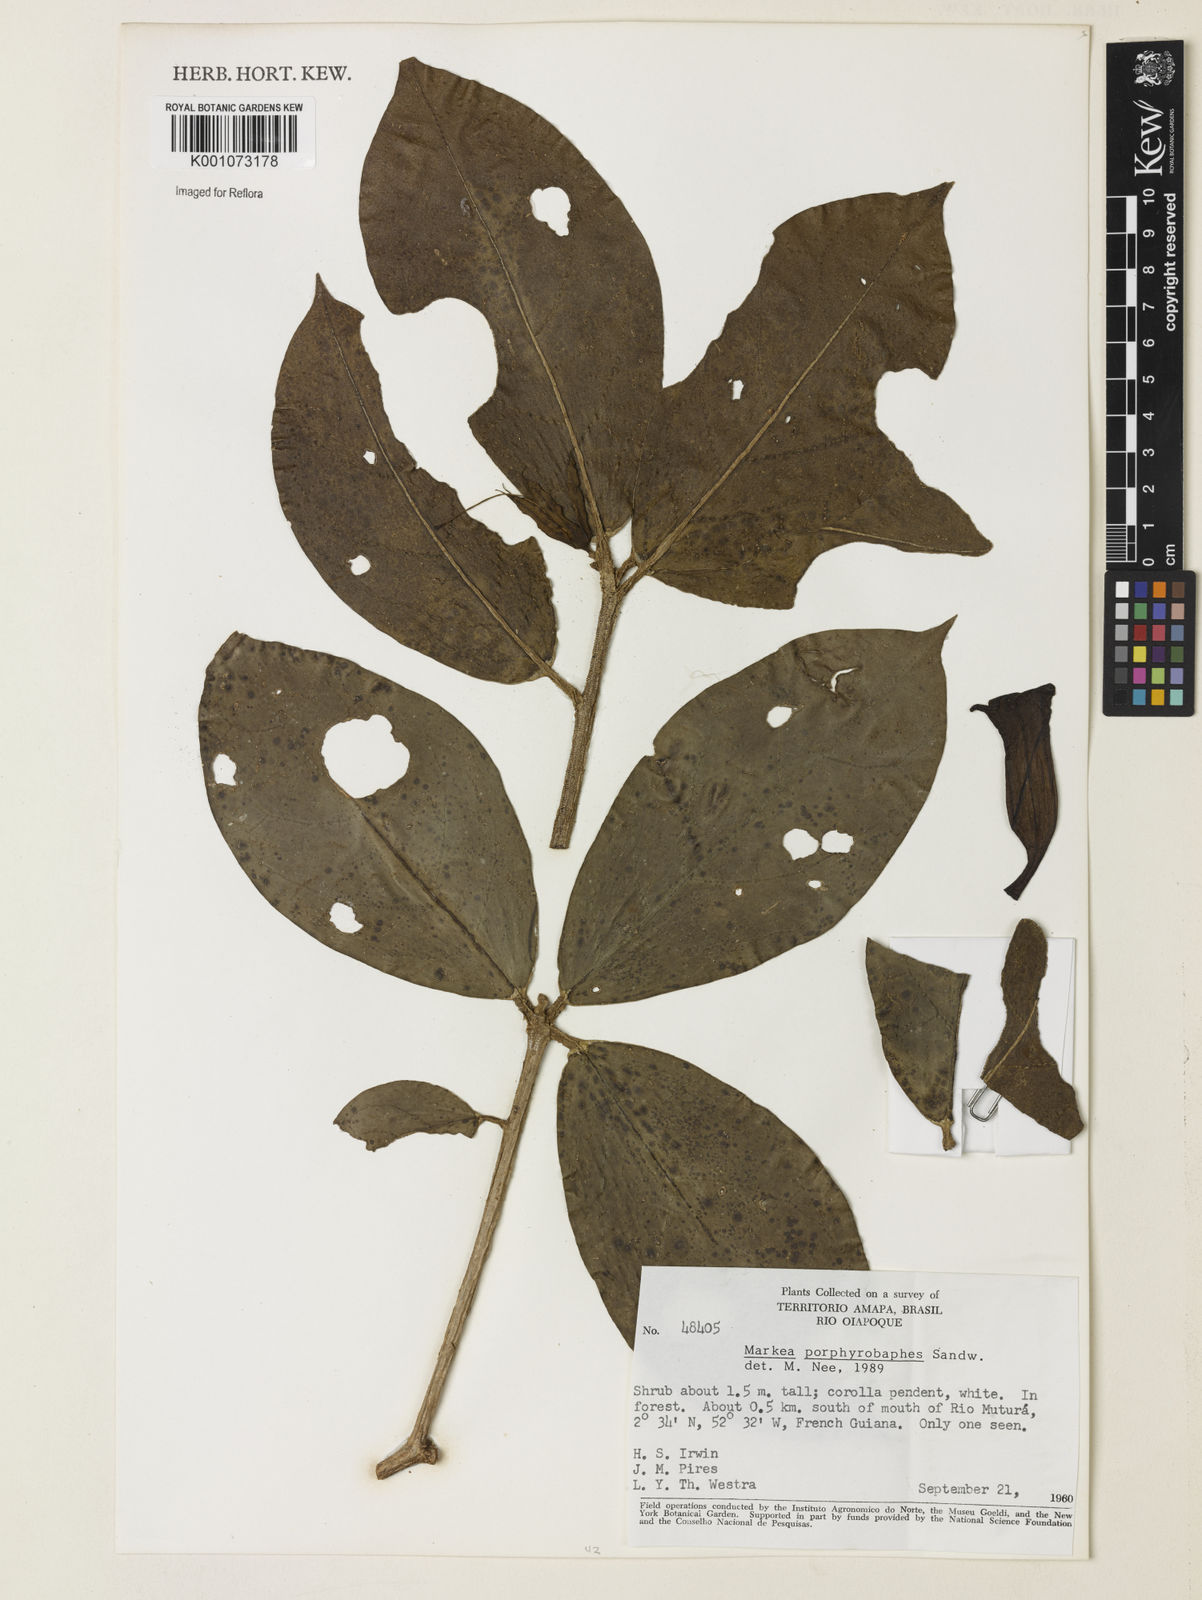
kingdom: Plantae
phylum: Tracheophyta
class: Magnoliopsida
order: Solanales
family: Solanaceae
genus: Markea
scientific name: Markea
